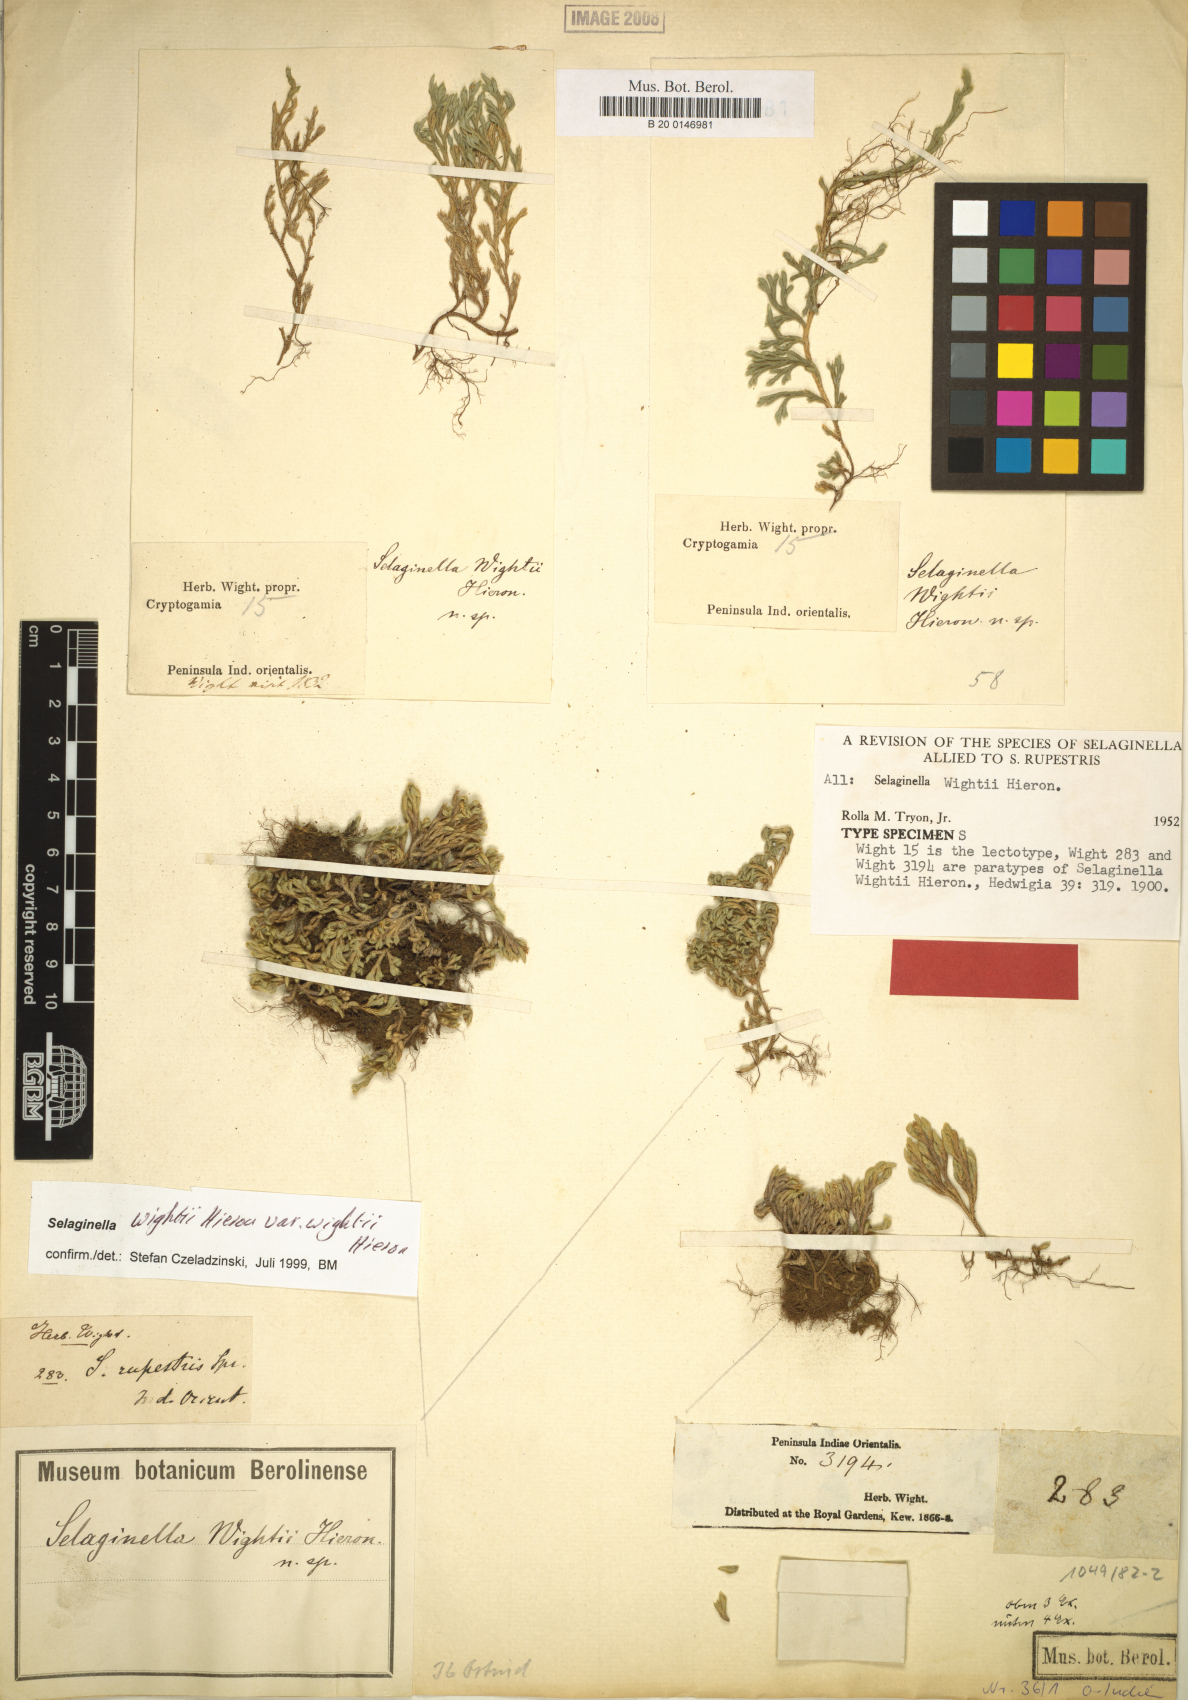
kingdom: Plantae
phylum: Tracheophyta
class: Lycopodiopsida
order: Selaginellales
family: Selaginellaceae
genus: Selaginella
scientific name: Selaginella wightii
